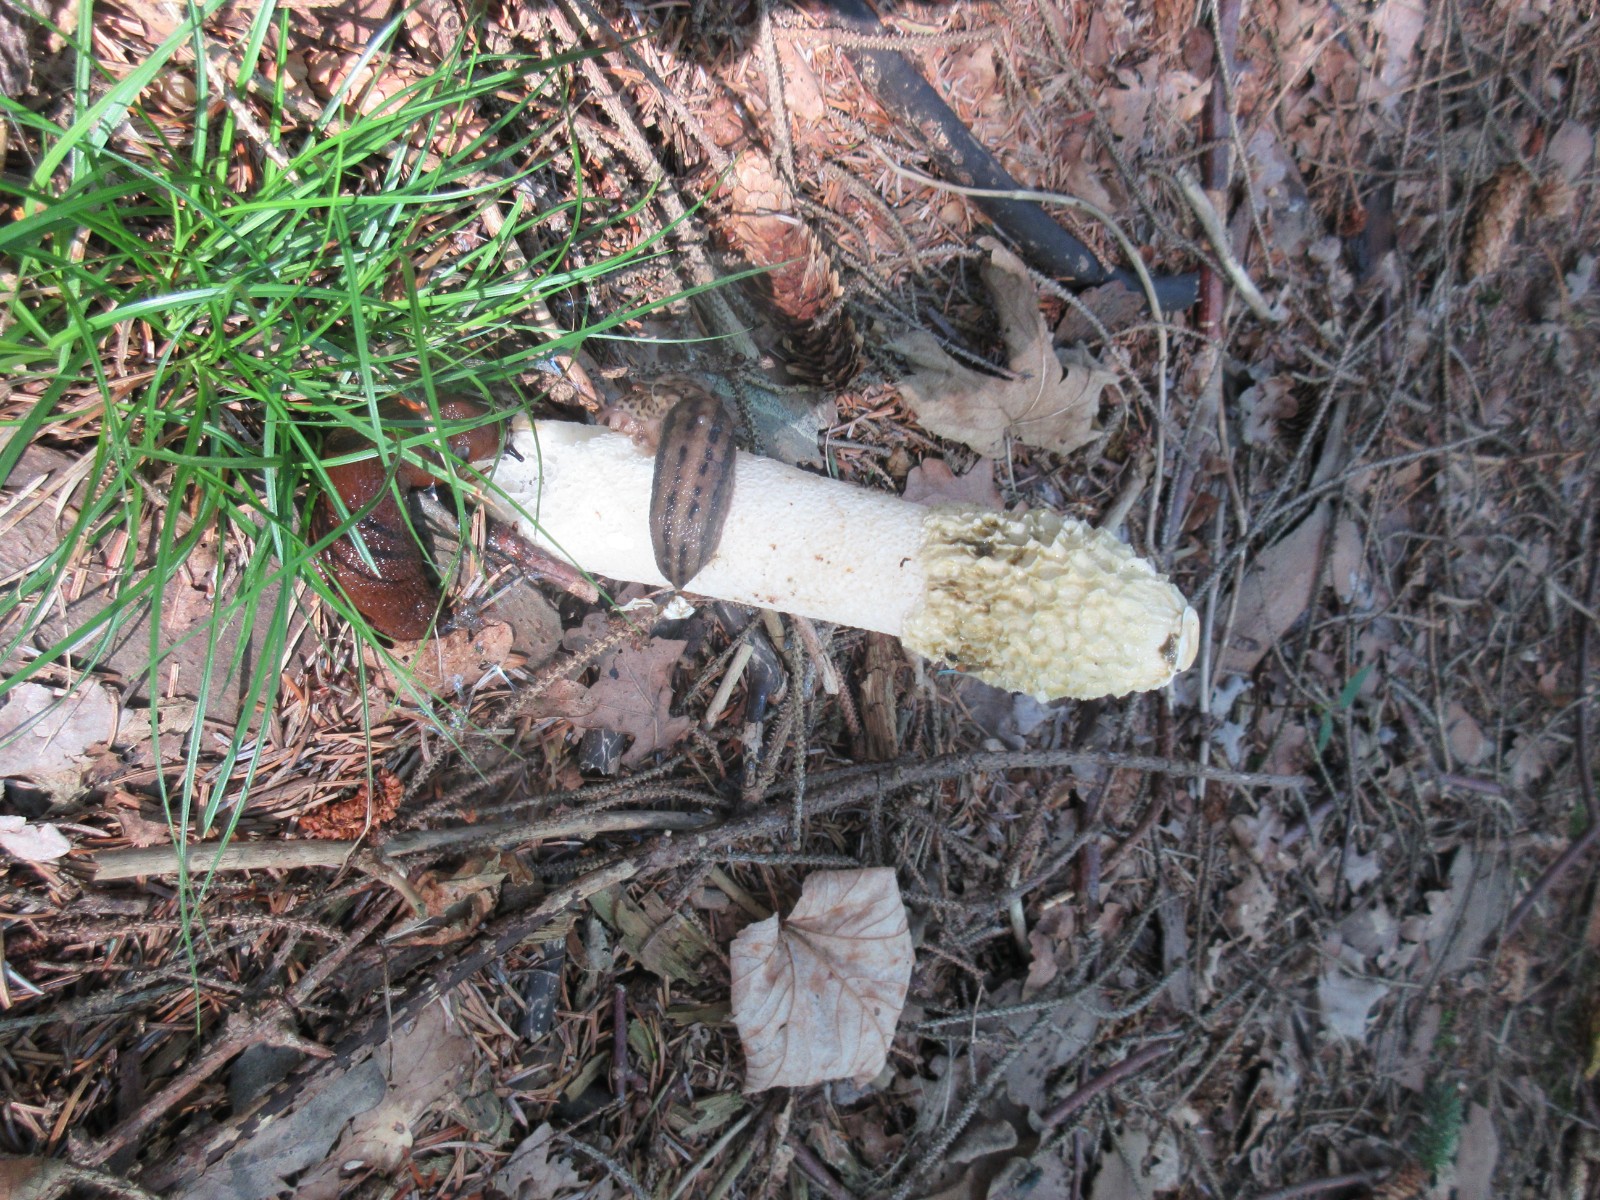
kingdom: Fungi
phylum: Basidiomycota
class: Agaricomycetes
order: Phallales
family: Phallaceae
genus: Phallus
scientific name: Phallus impudicus
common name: almindelig stinksvamp
